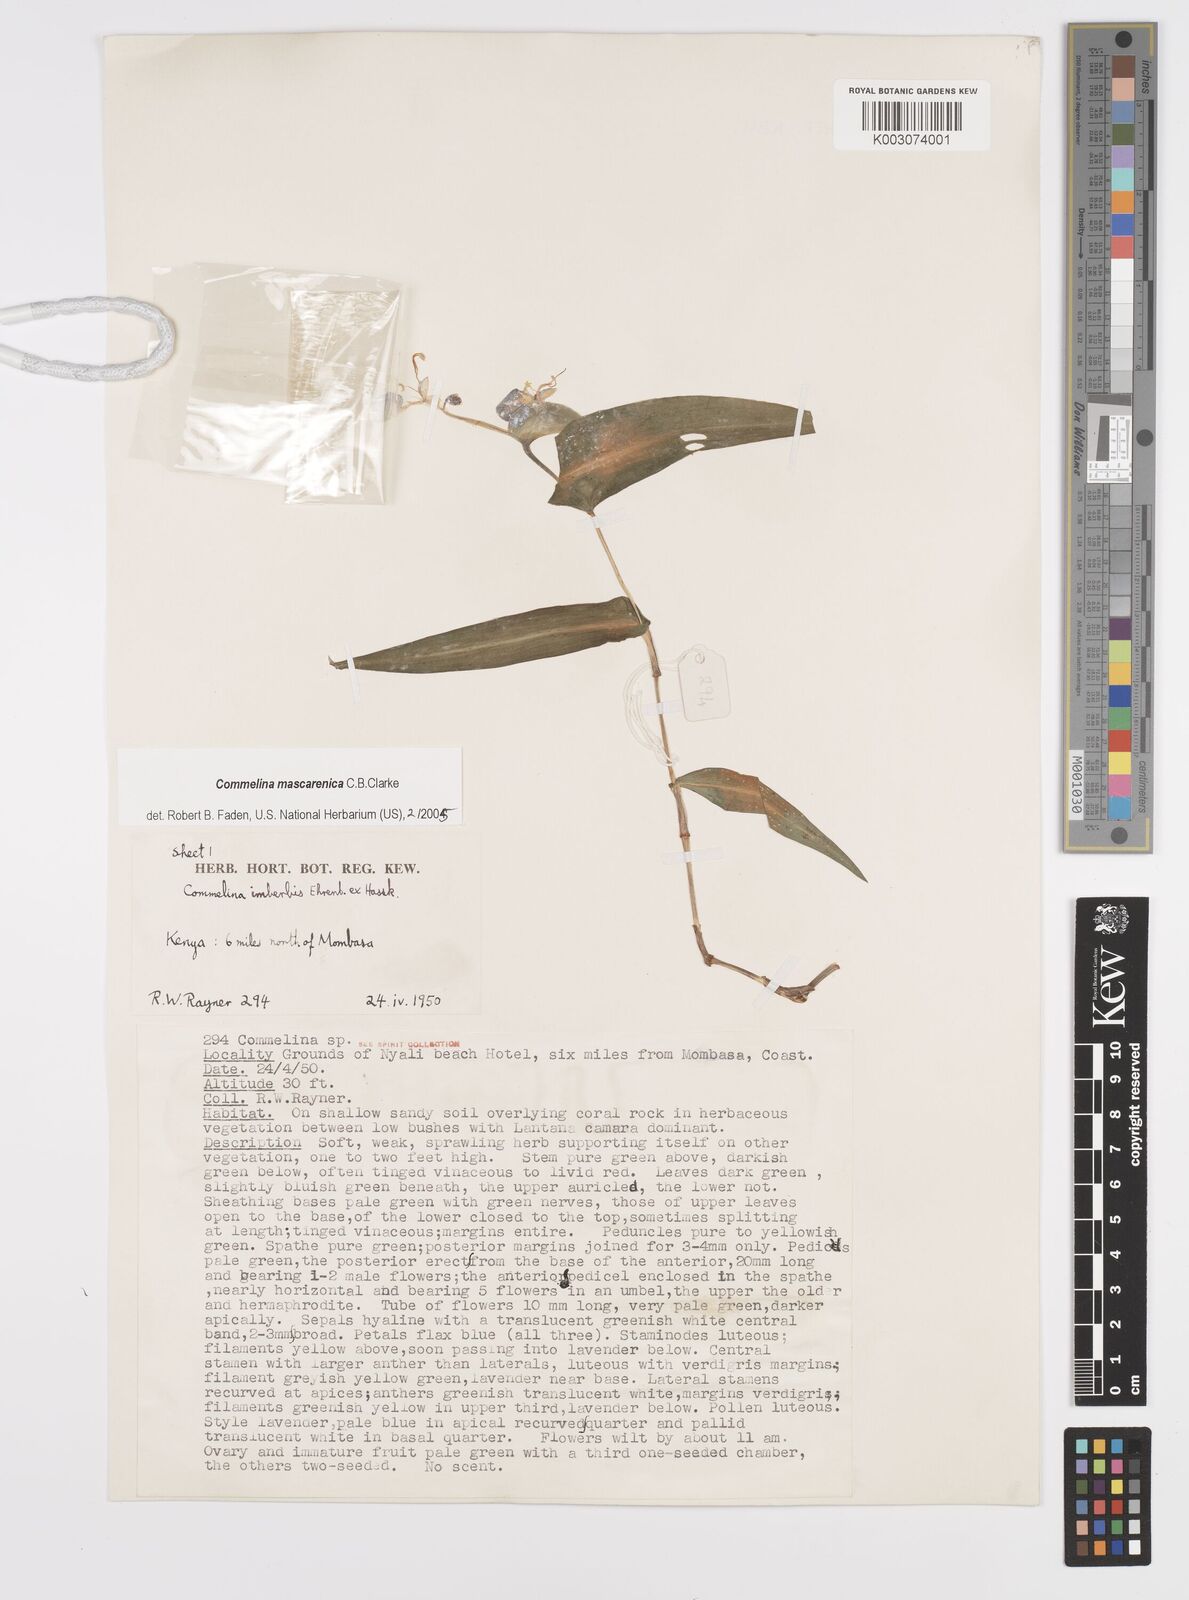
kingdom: Plantae
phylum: Tracheophyta
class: Liliopsida
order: Commelinales
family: Commelinaceae
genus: Commelina
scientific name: Commelina mascarenica
